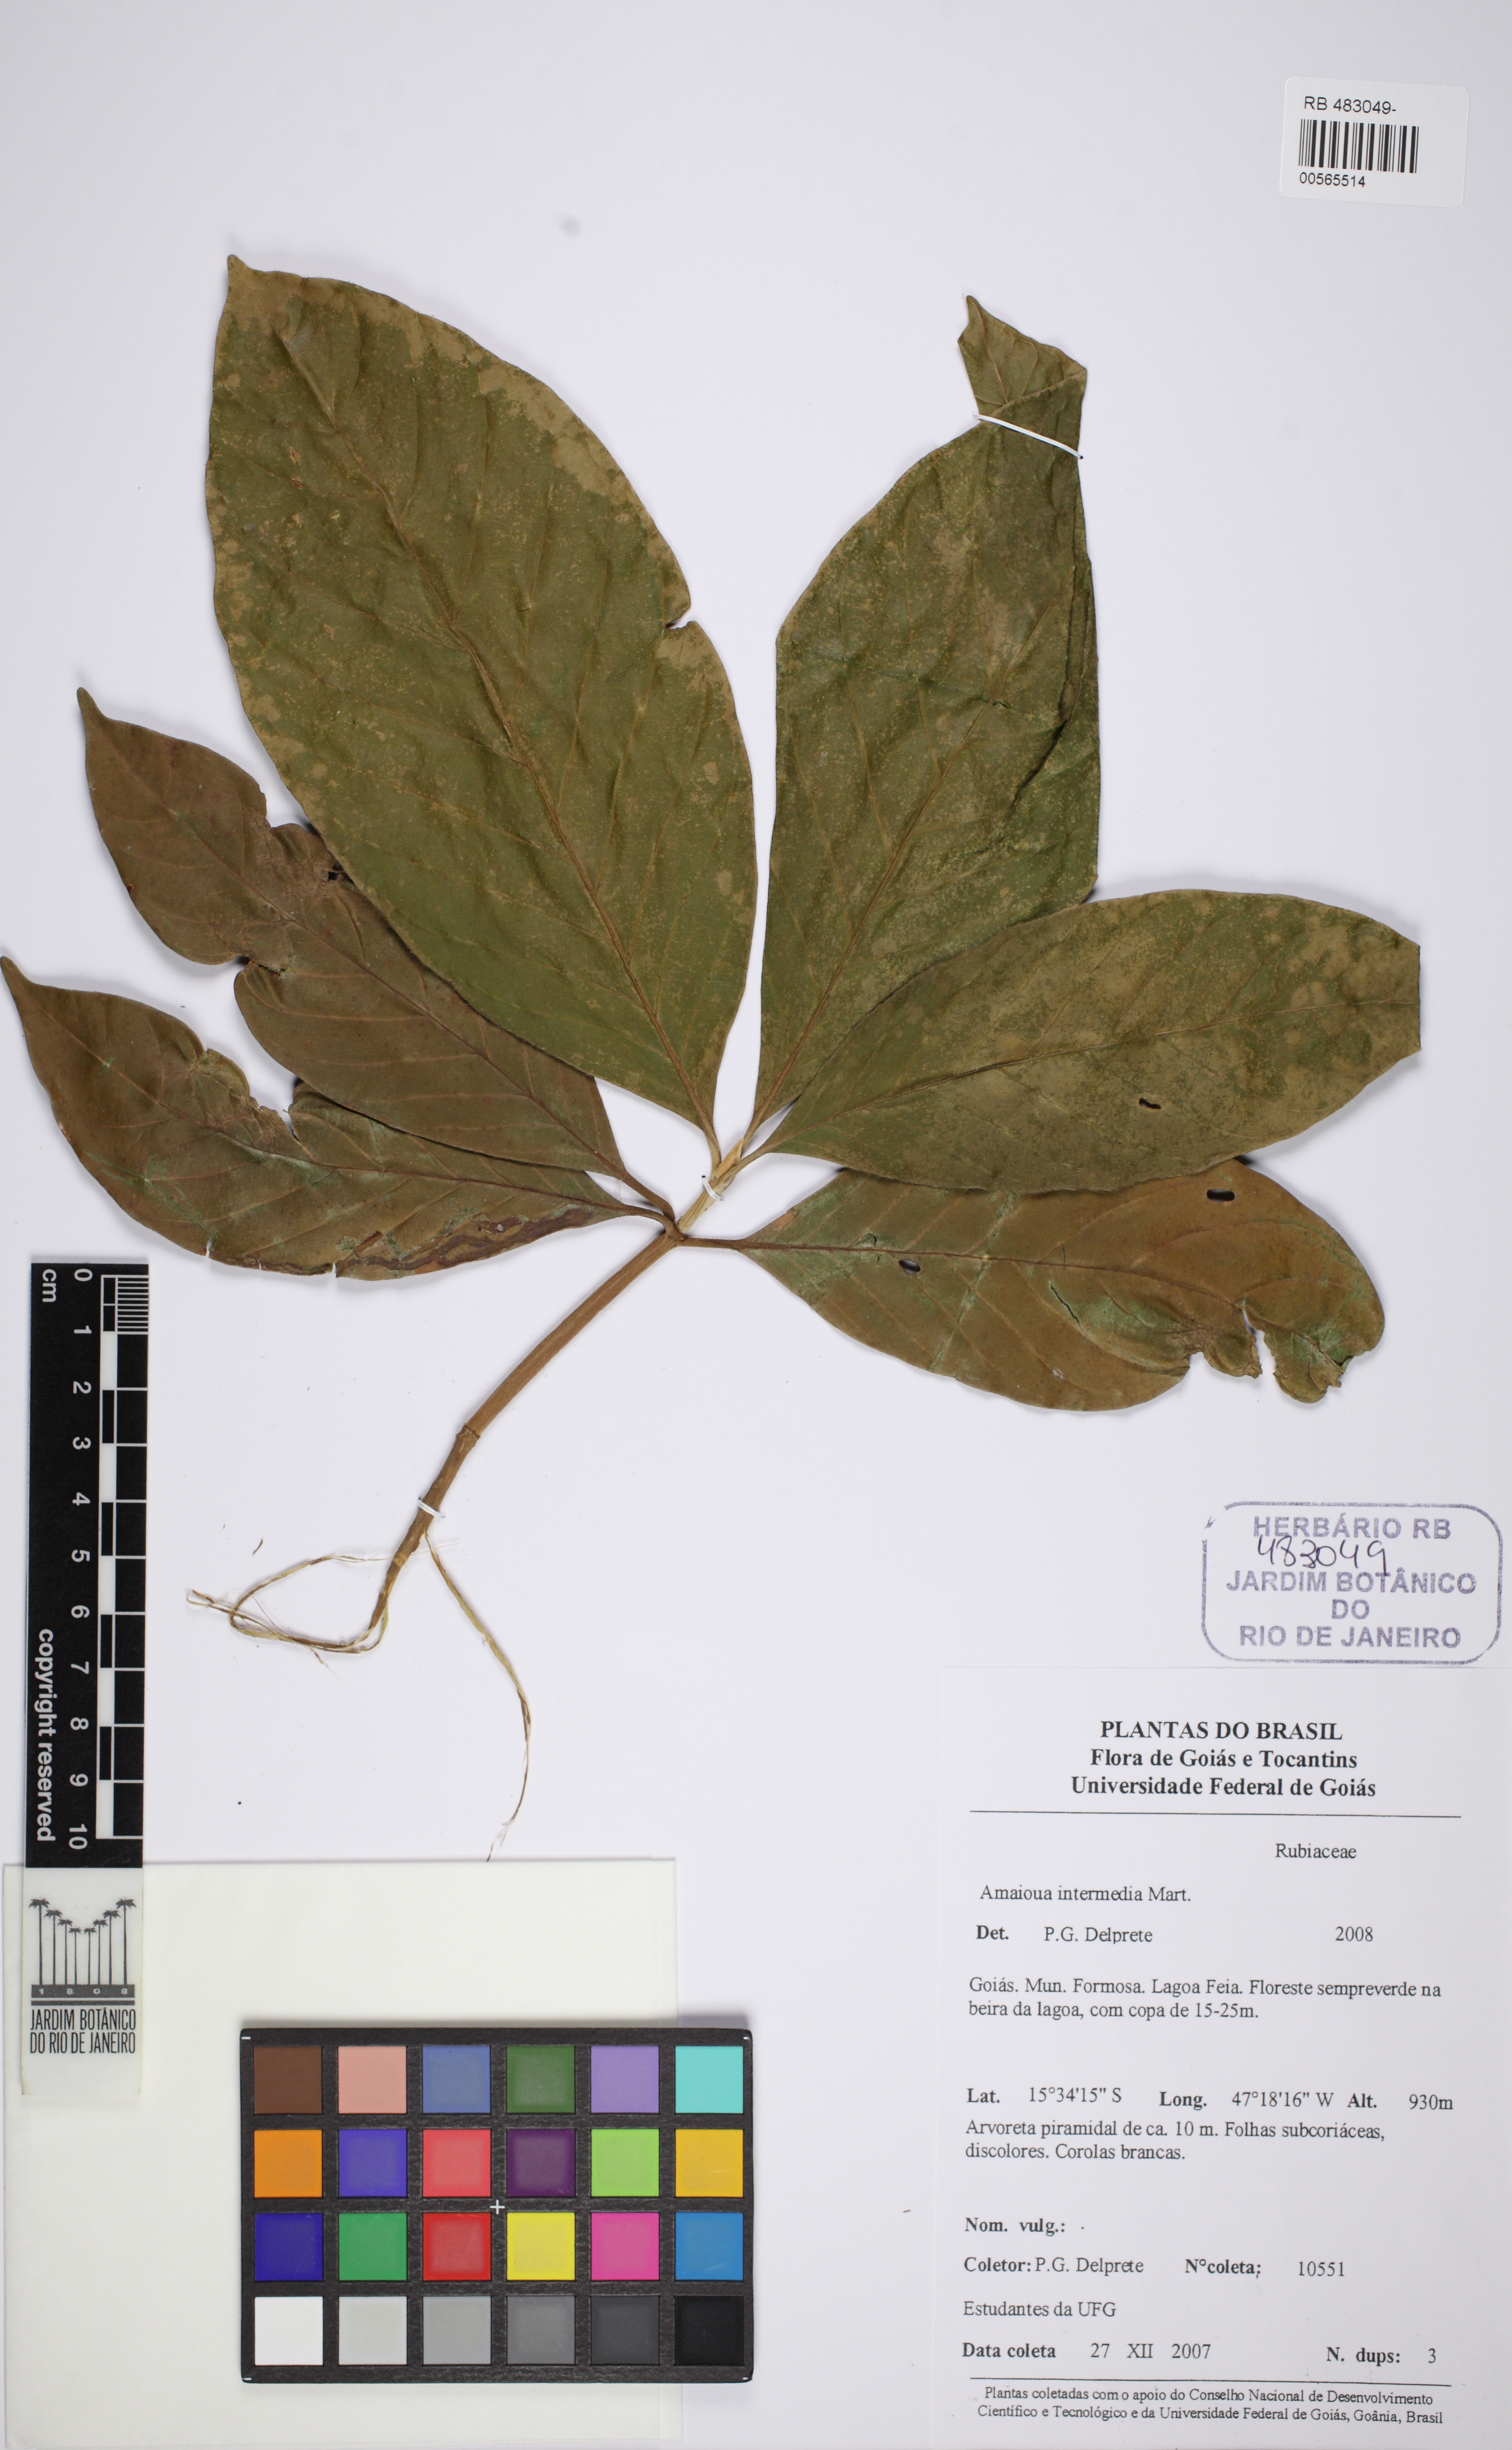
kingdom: Plantae
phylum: Tracheophyta
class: Magnoliopsida
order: Gentianales
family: Rubiaceae
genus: Amaioua
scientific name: Amaioua intermedia
